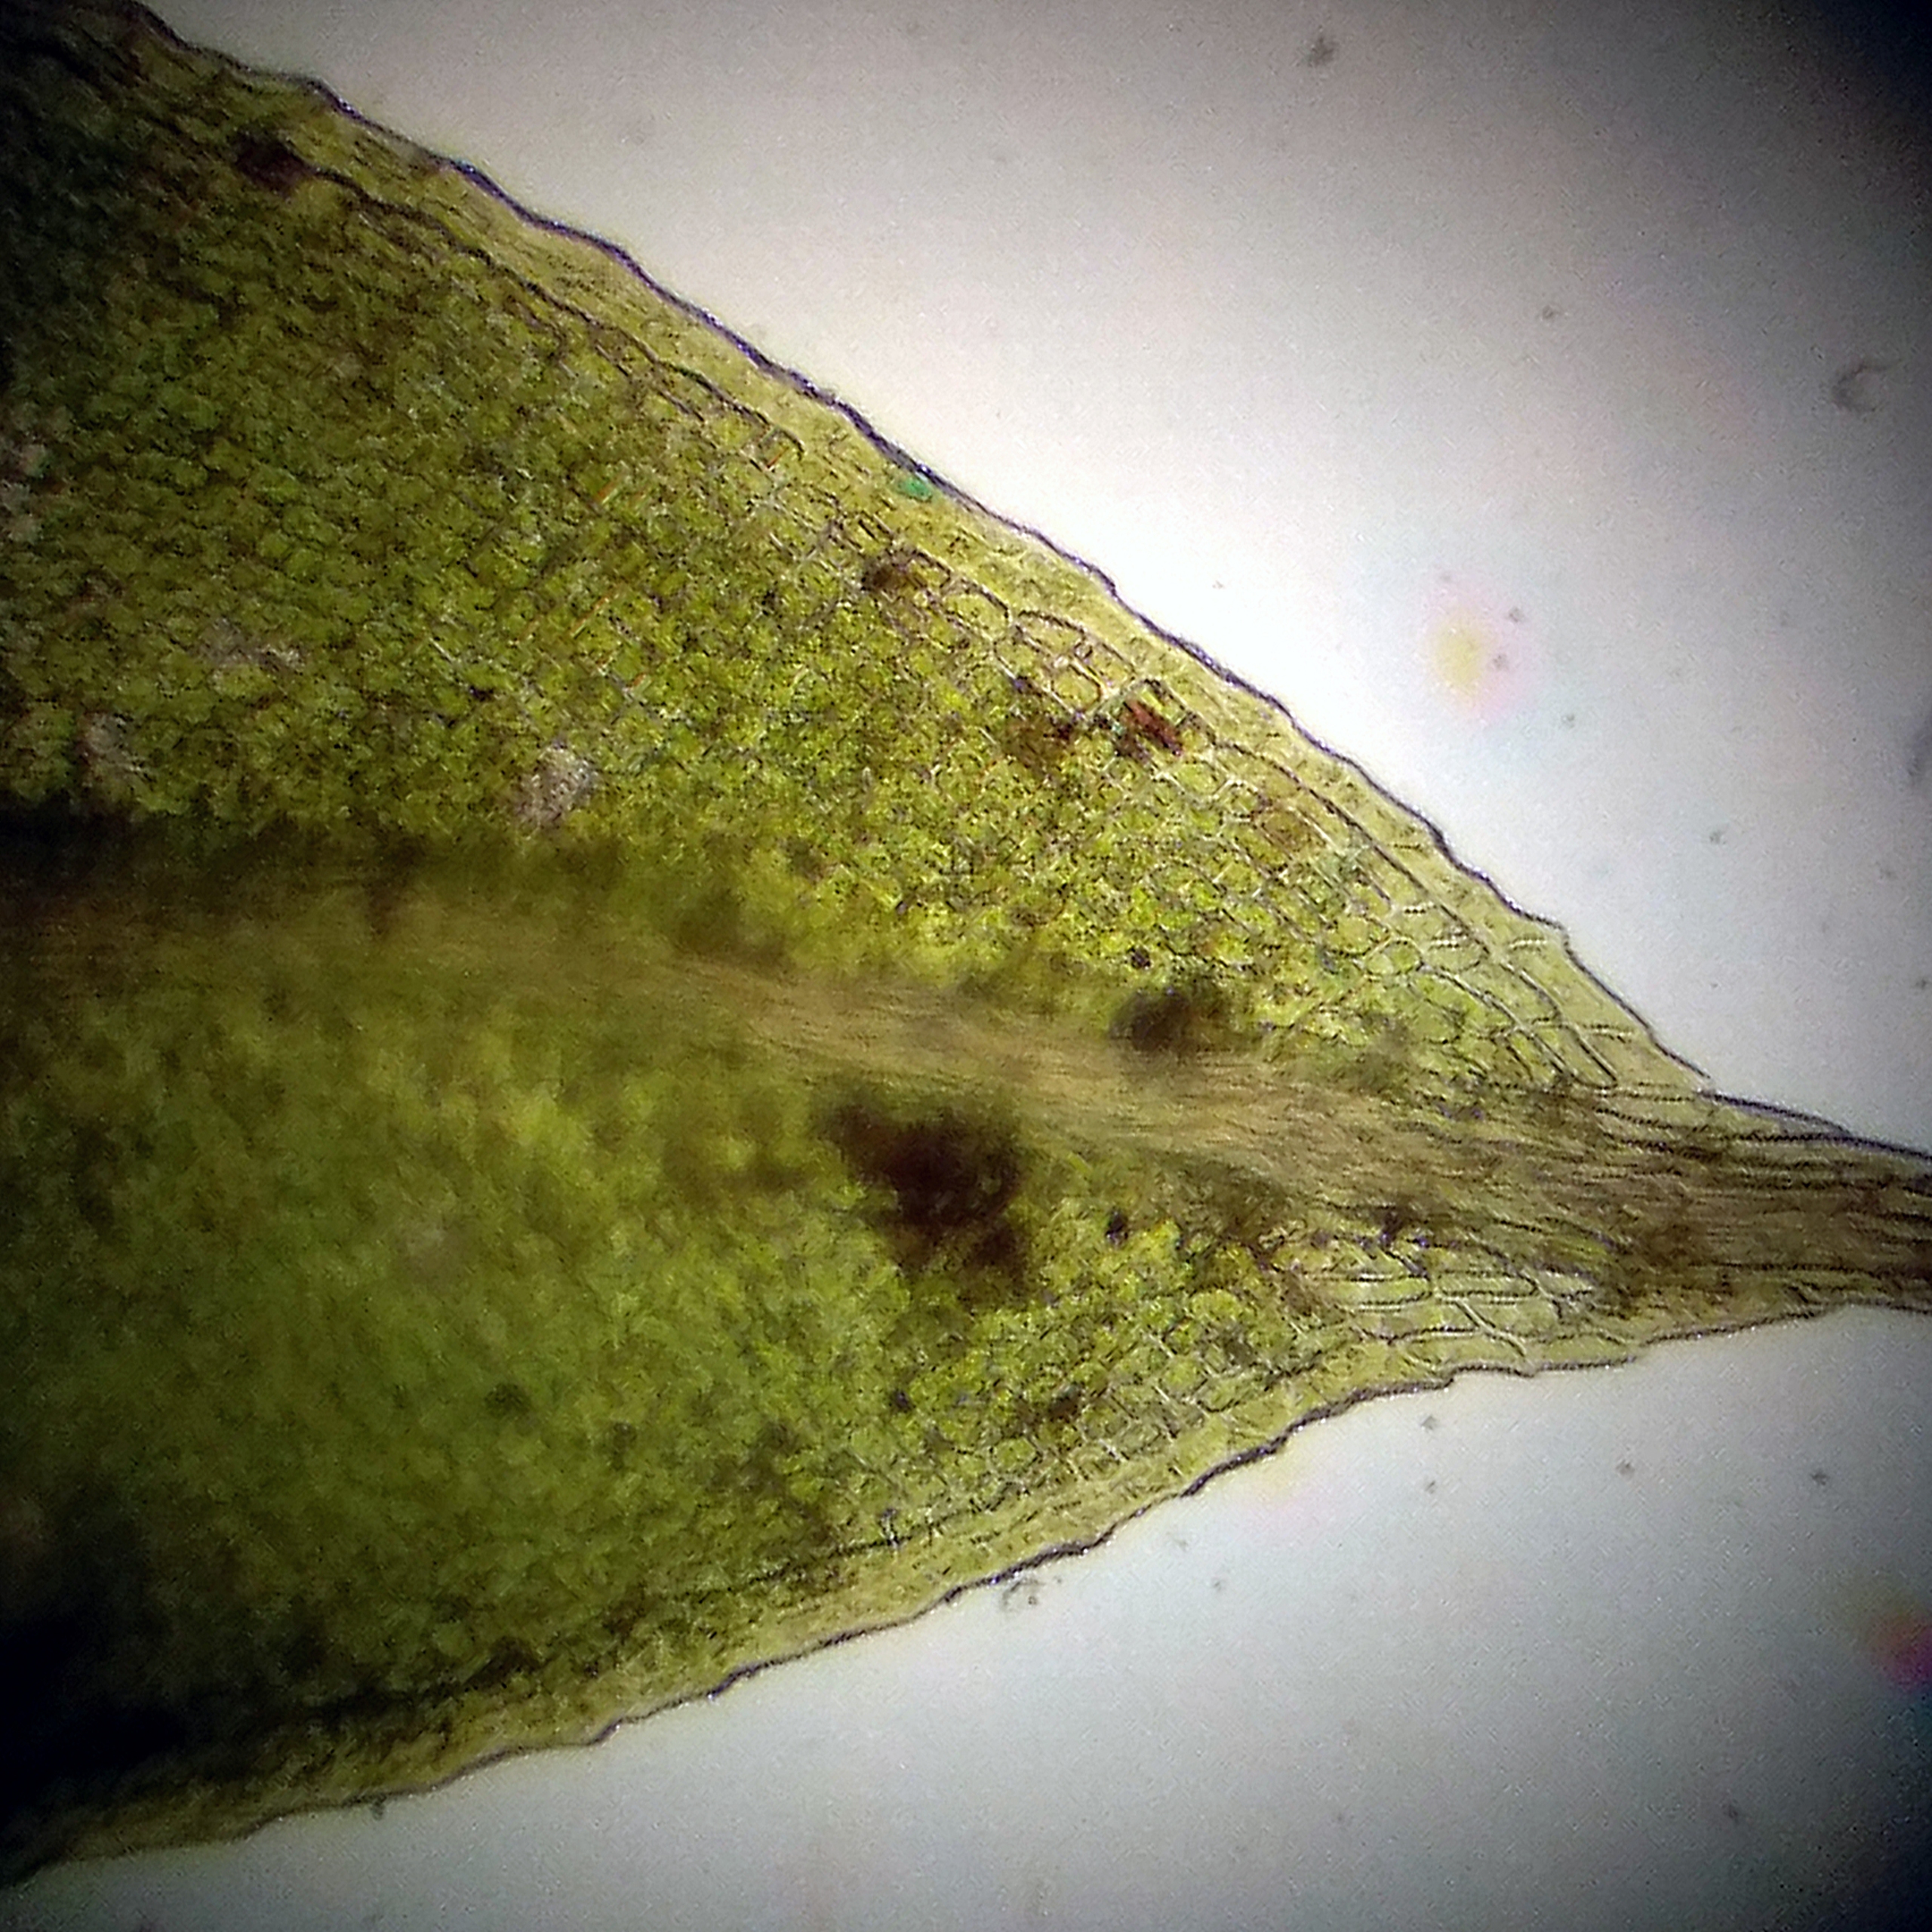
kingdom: Plantae
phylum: Bryophyta
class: Bryopsida
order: Pottiales
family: Pottiaceae
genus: Tortula
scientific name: Tortula schimperi
